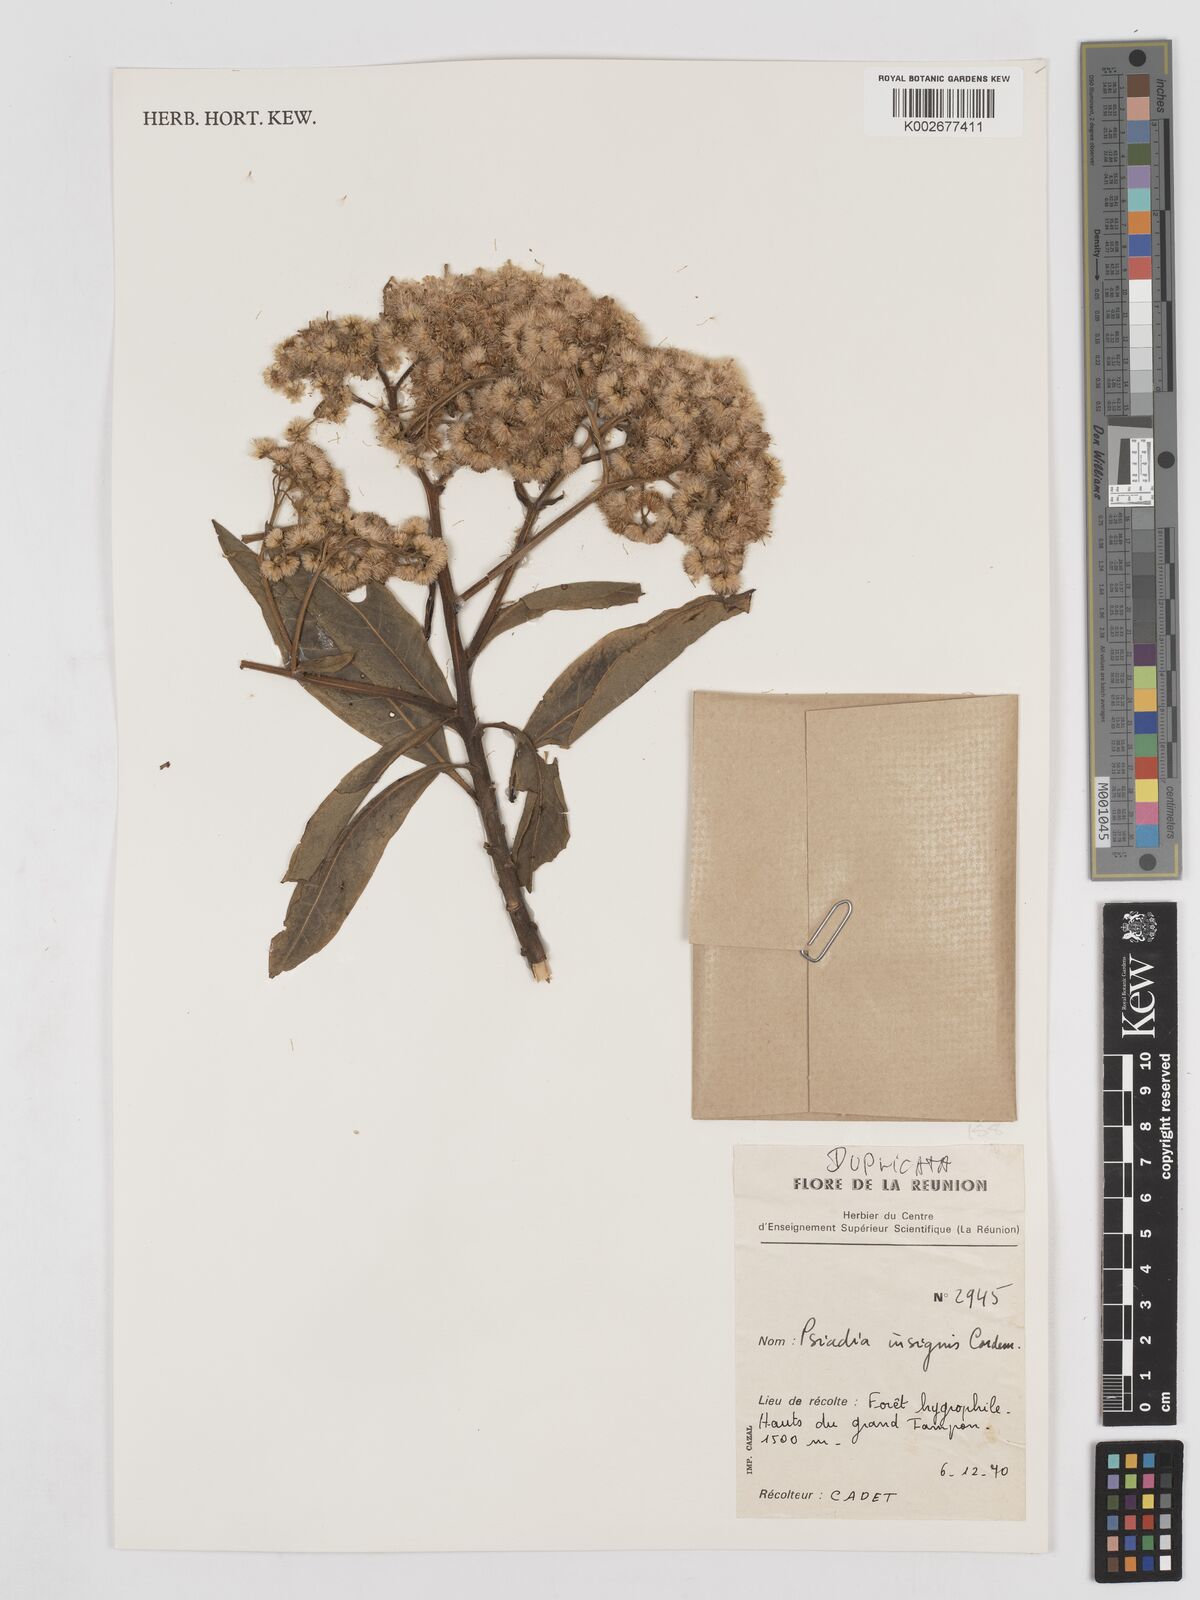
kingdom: Plantae
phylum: Tracheophyta
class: Magnoliopsida
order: Asterales
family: Asteraceae
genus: Psiadia
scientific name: Psiadia insignis
